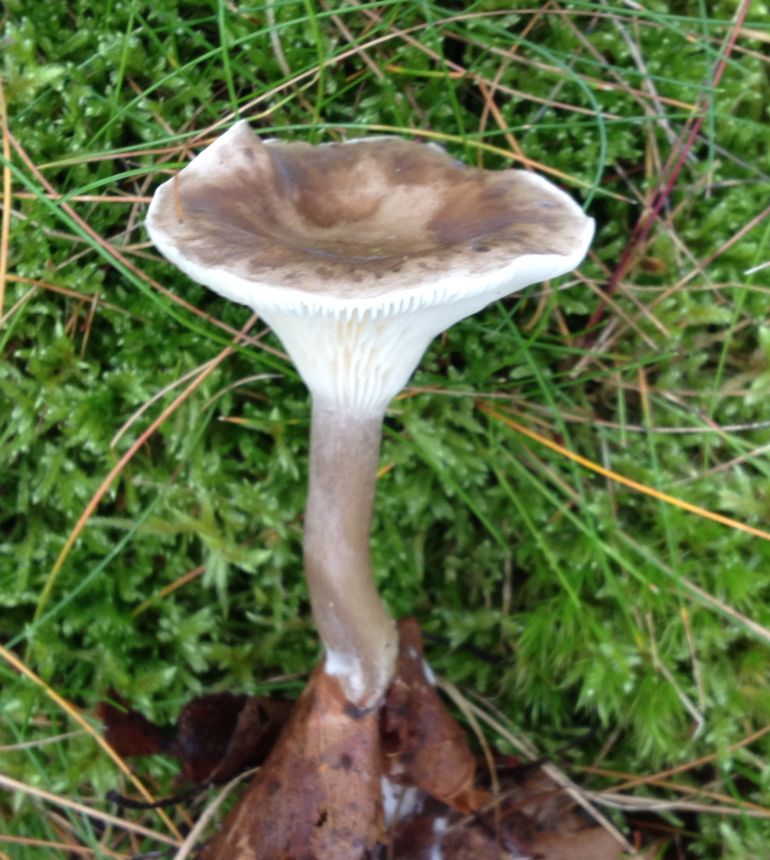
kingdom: Fungi
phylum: Basidiomycota
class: Agaricomycetes
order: Agaricales
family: Pseudoclitocybaceae
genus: Pseudoclitocybe
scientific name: Pseudoclitocybe cyathiformis
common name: almindelig bægertragthat
